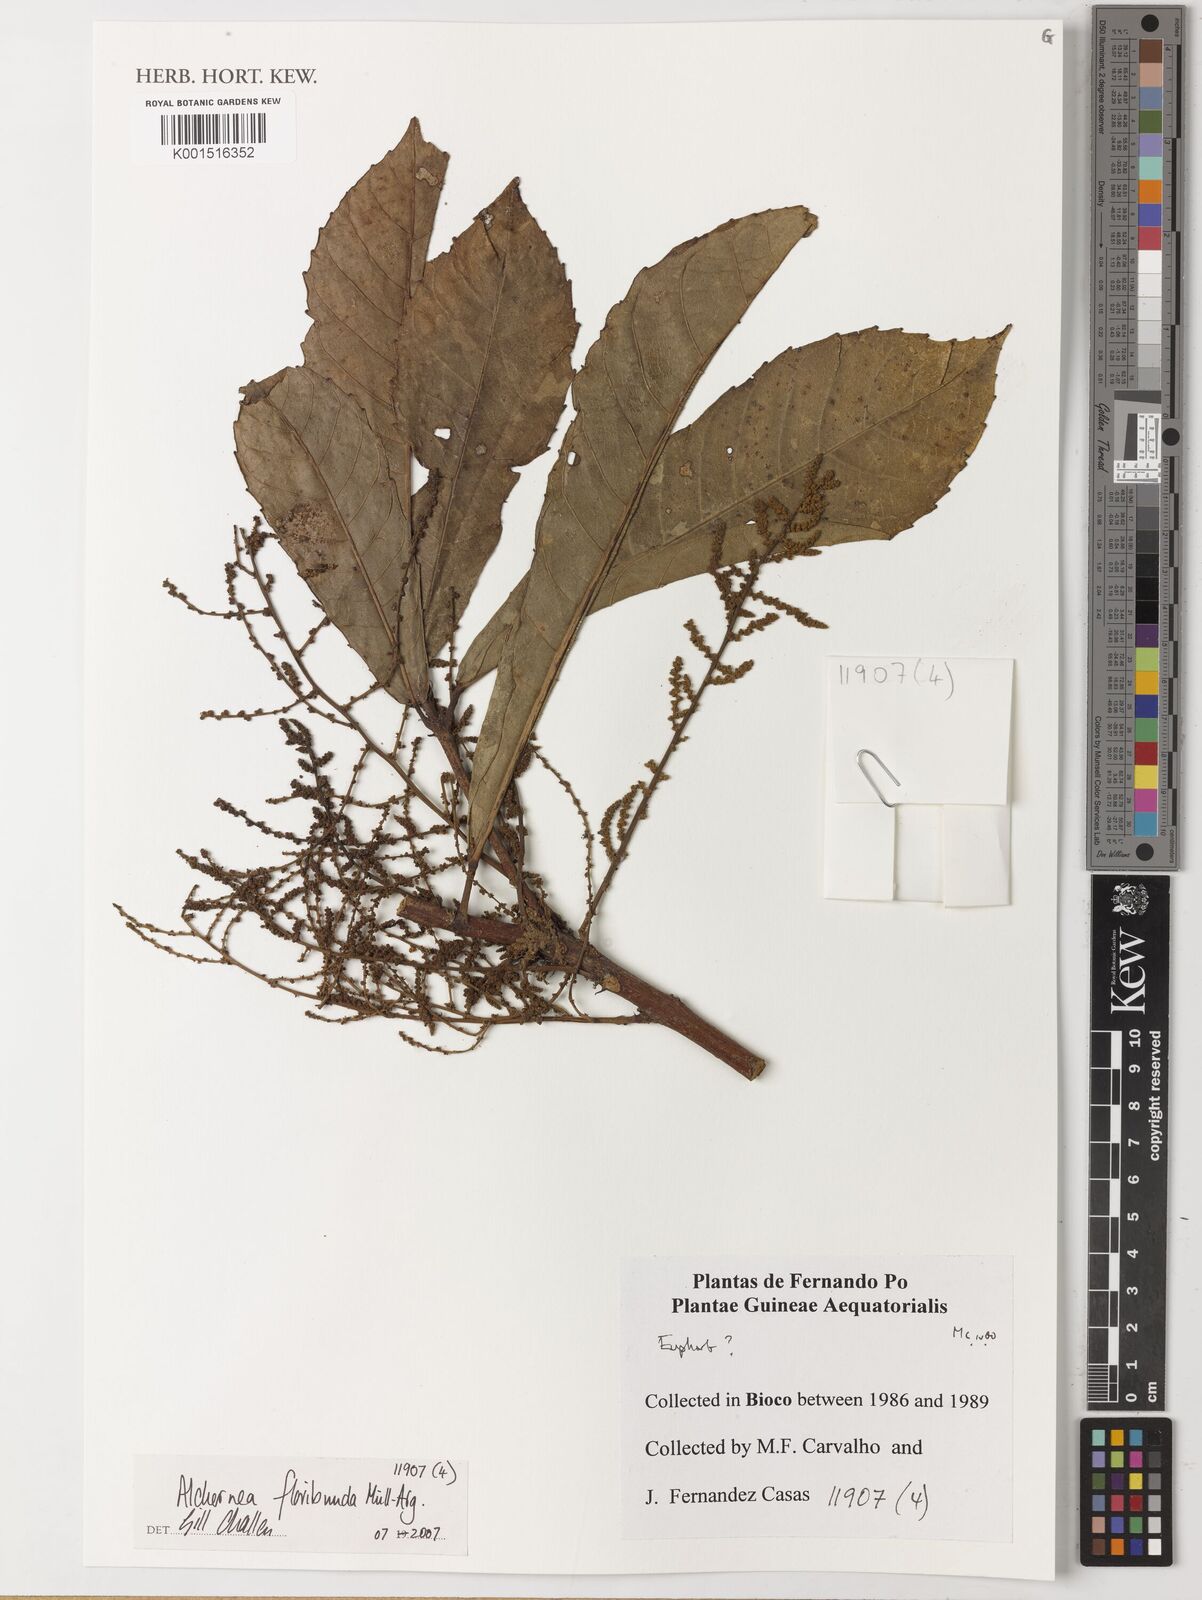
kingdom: Plantae
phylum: Tracheophyta
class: Magnoliopsida
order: Malpighiales
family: Euphorbiaceae
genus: Alchornea
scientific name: Alchornea floribunda
